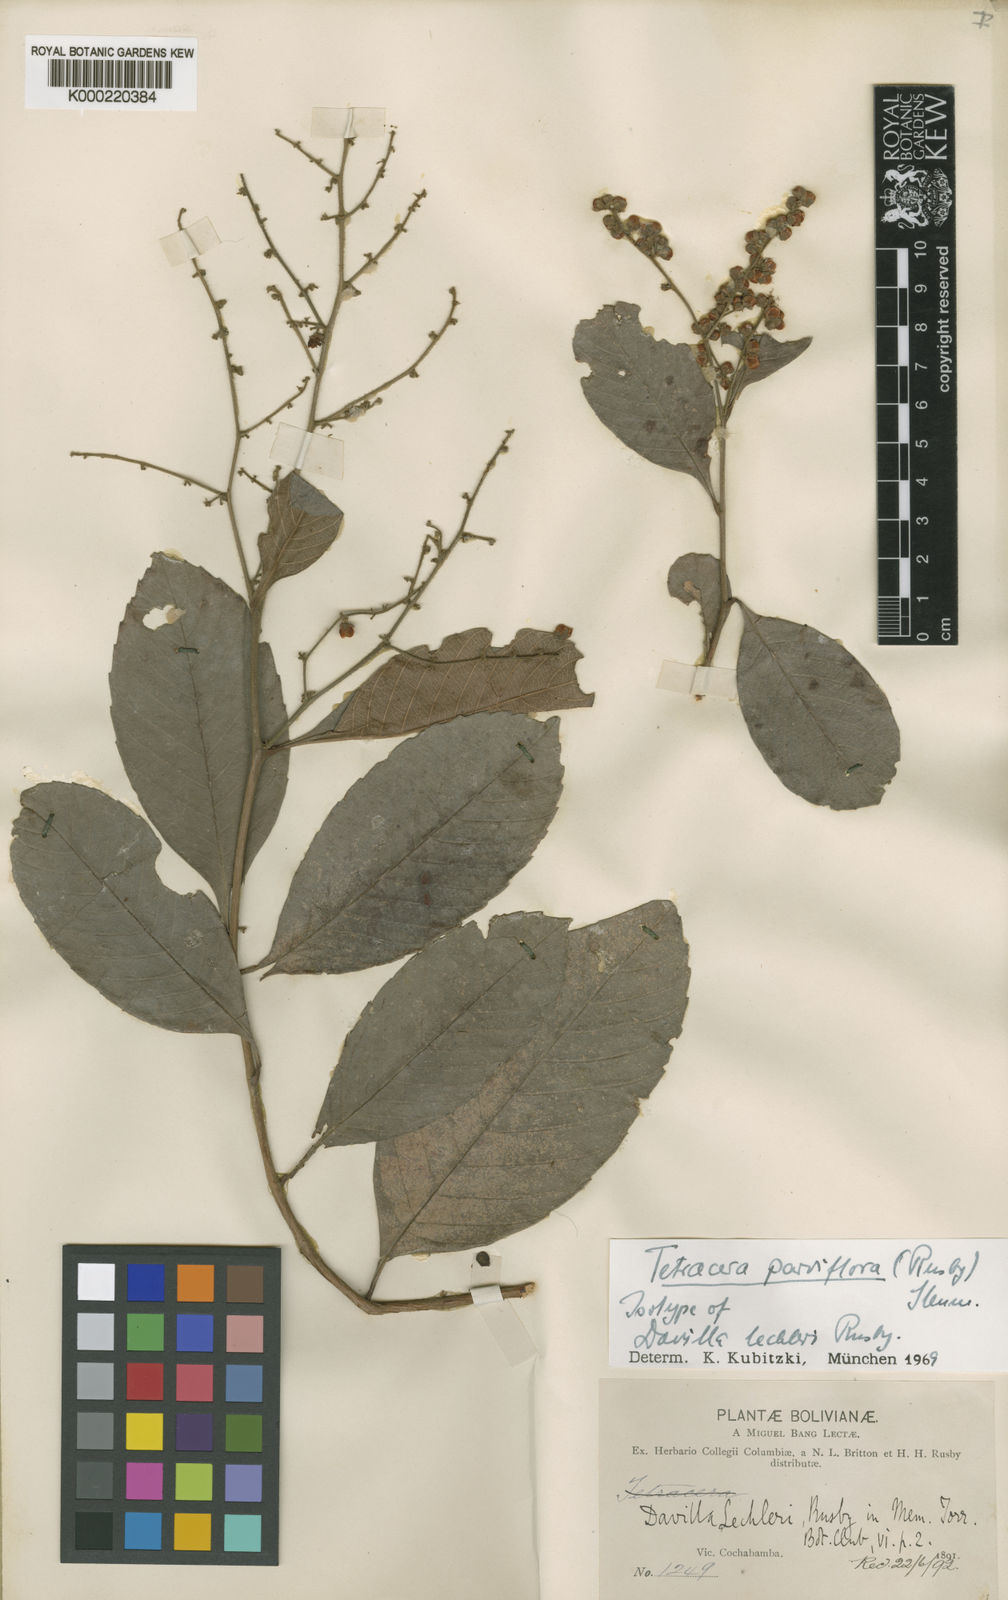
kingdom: Plantae
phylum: Tracheophyta
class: Magnoliopsida
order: Dilleniales
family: Dilleniaceae
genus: Tetracera
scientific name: Tetracera parviflora
